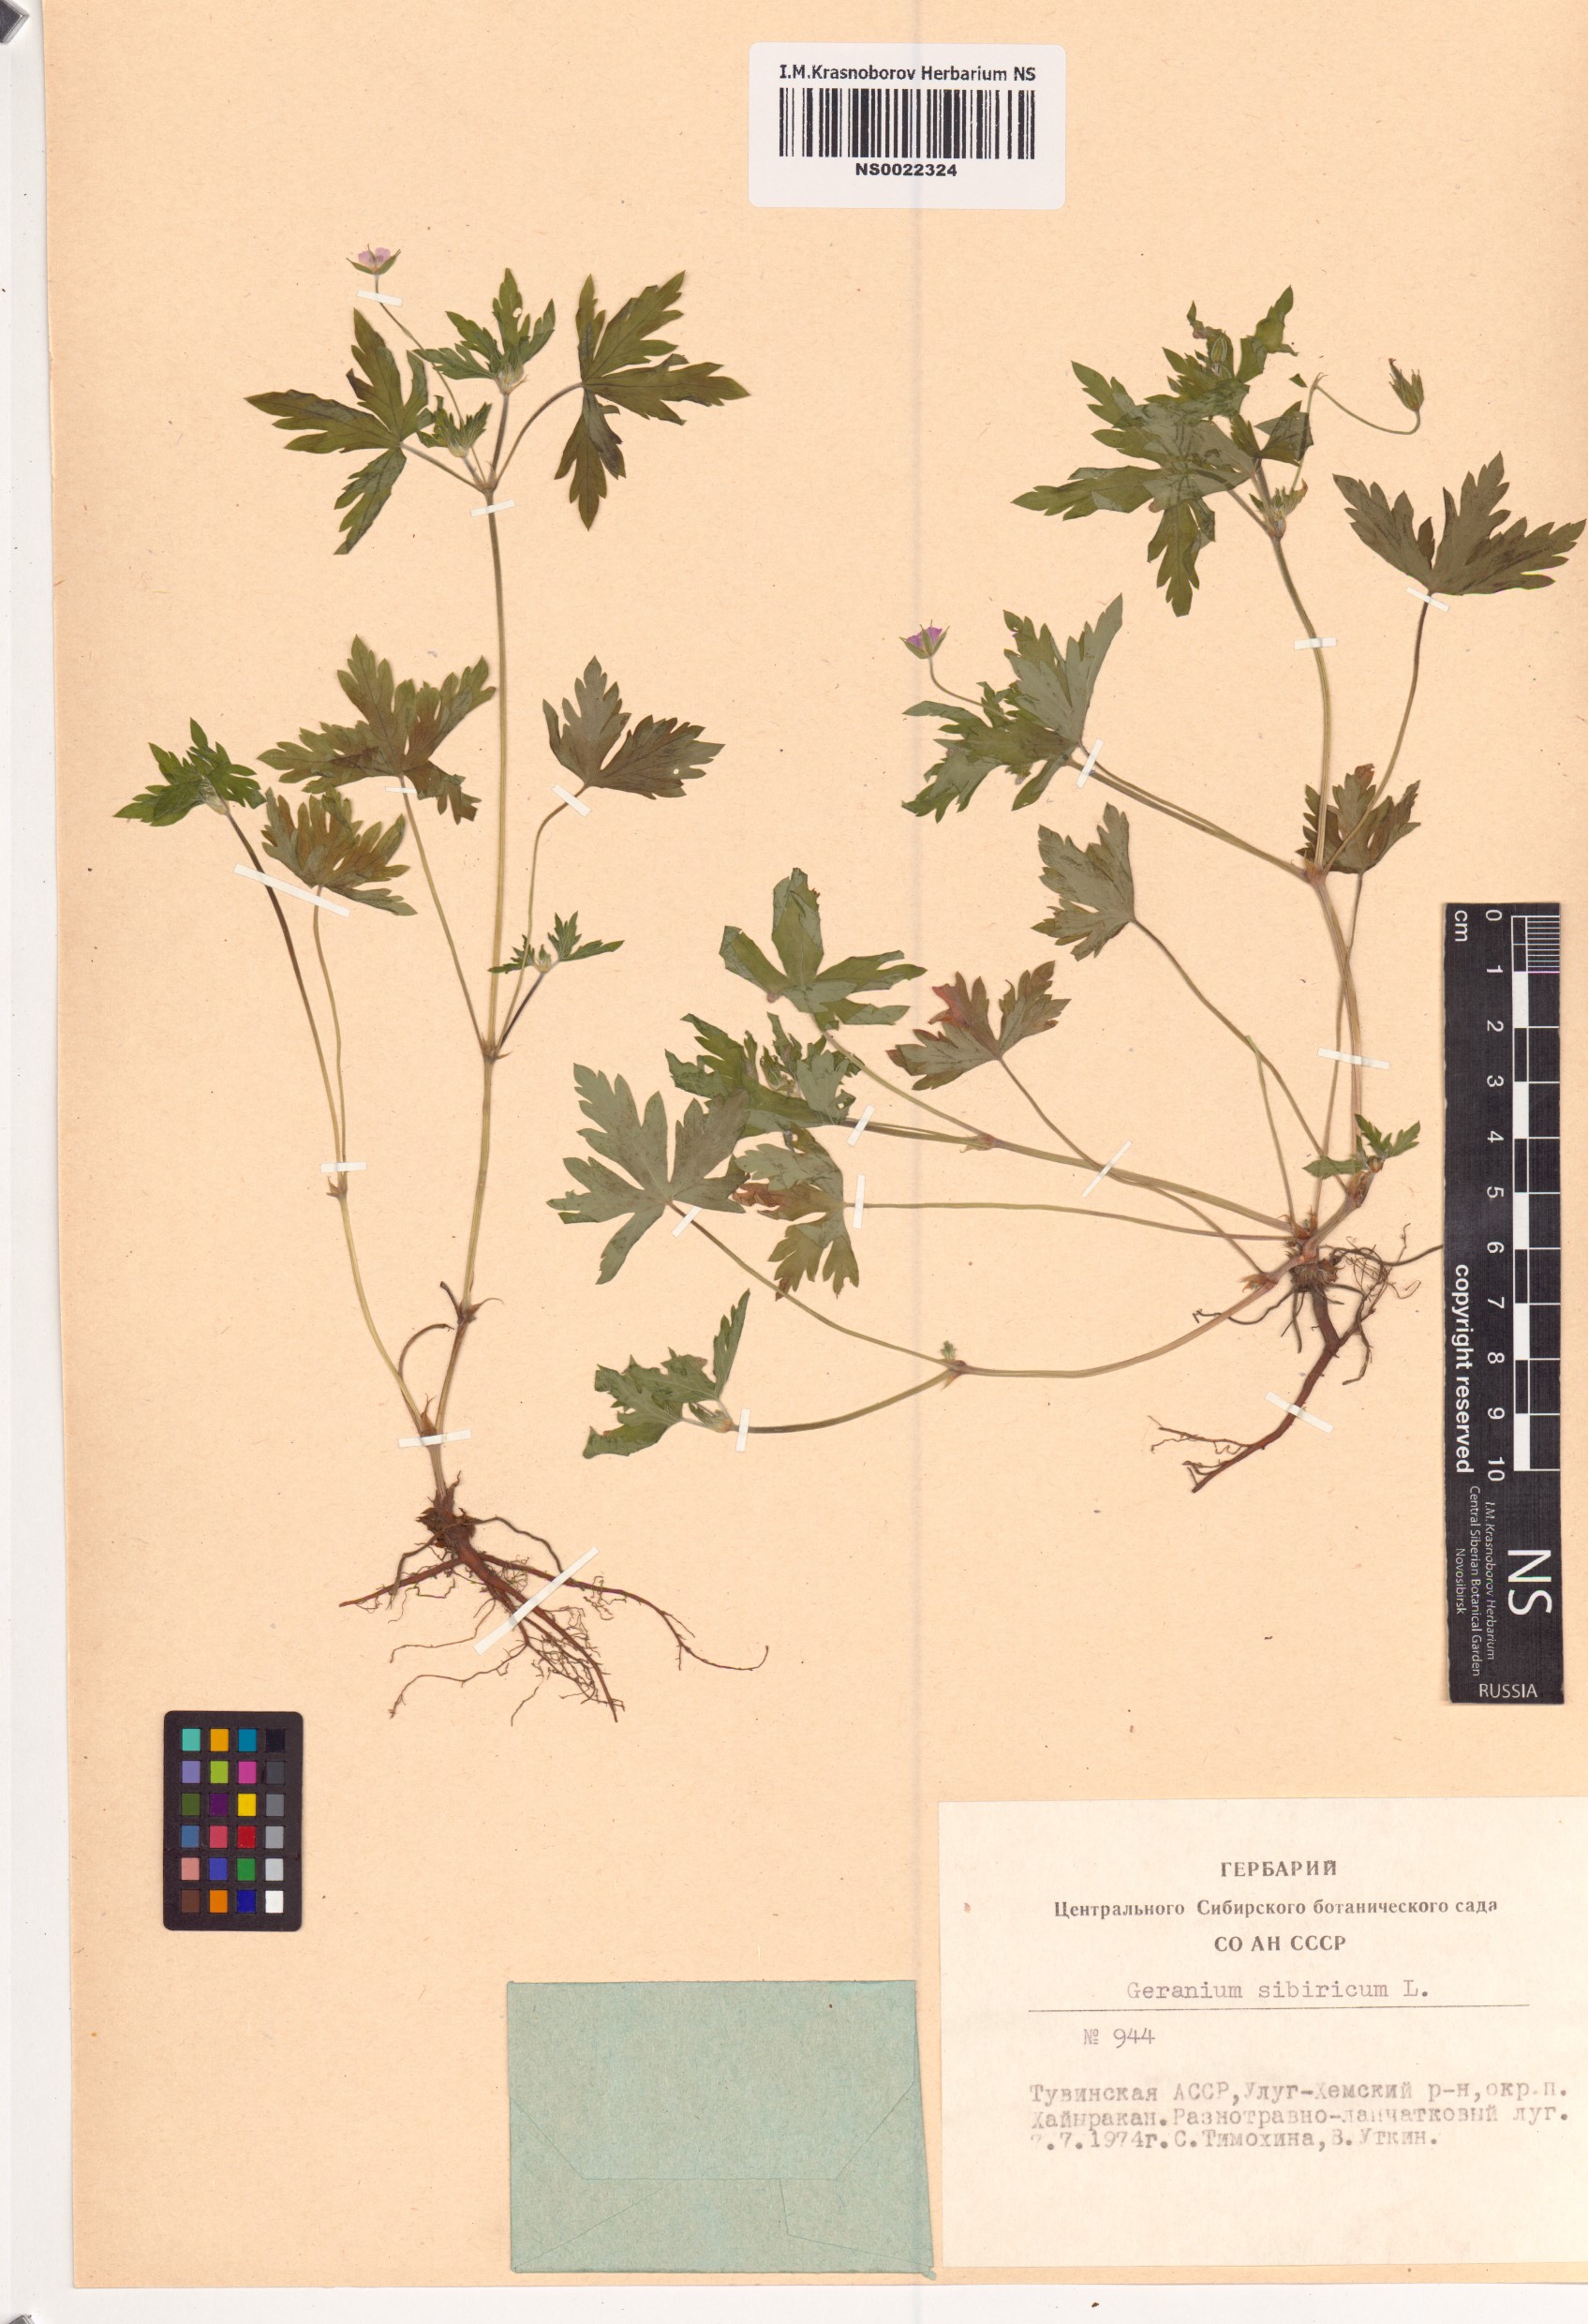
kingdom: Plantae
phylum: Tracheophyta
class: Magnoliopsida
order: Geraniales
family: Geraniaceae
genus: Geranium
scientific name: Geranium sibiricum
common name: Siberian crane's-bill
